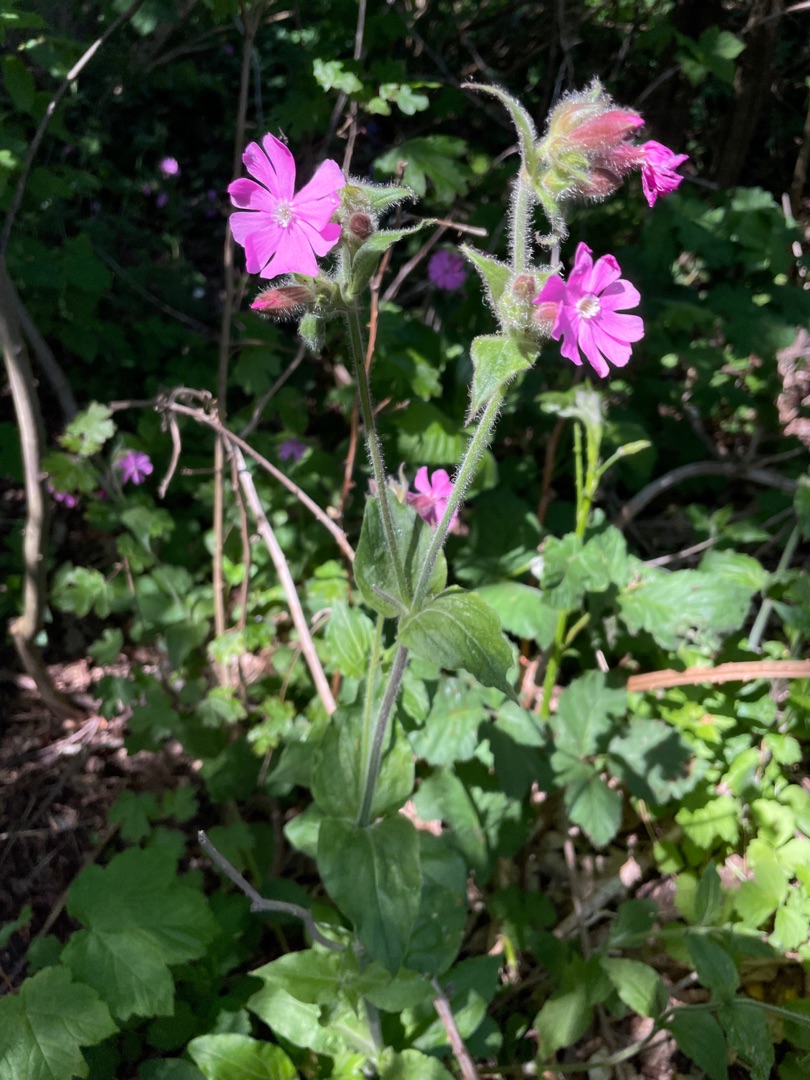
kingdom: Plantae
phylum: Tracheophyta
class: Magnoliopsida
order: Caryophyllales
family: Caryophyllaceae
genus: Silene
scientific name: Silene dioica
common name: Dagpragtstjerne
